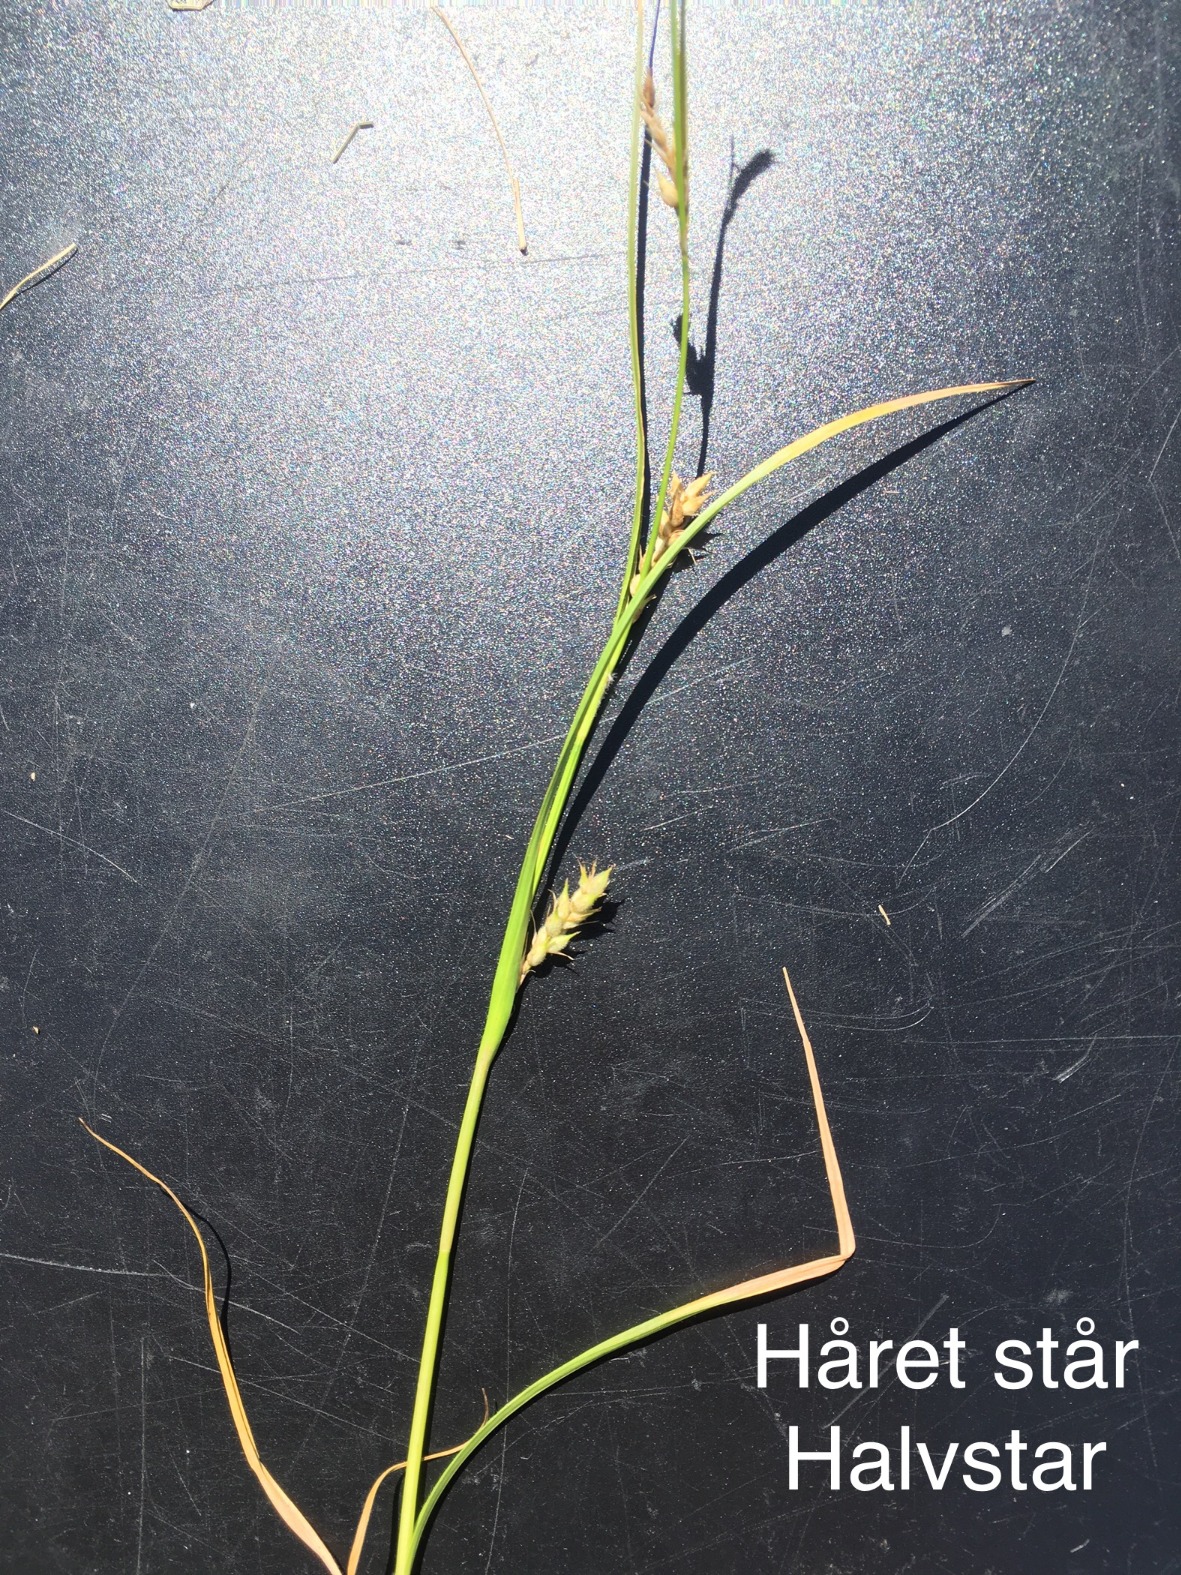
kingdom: Plantae
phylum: Tracheophyta
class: Liliopsida
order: Poales
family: Cyperaceae
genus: Carex
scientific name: Carex hirta
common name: Håret star
